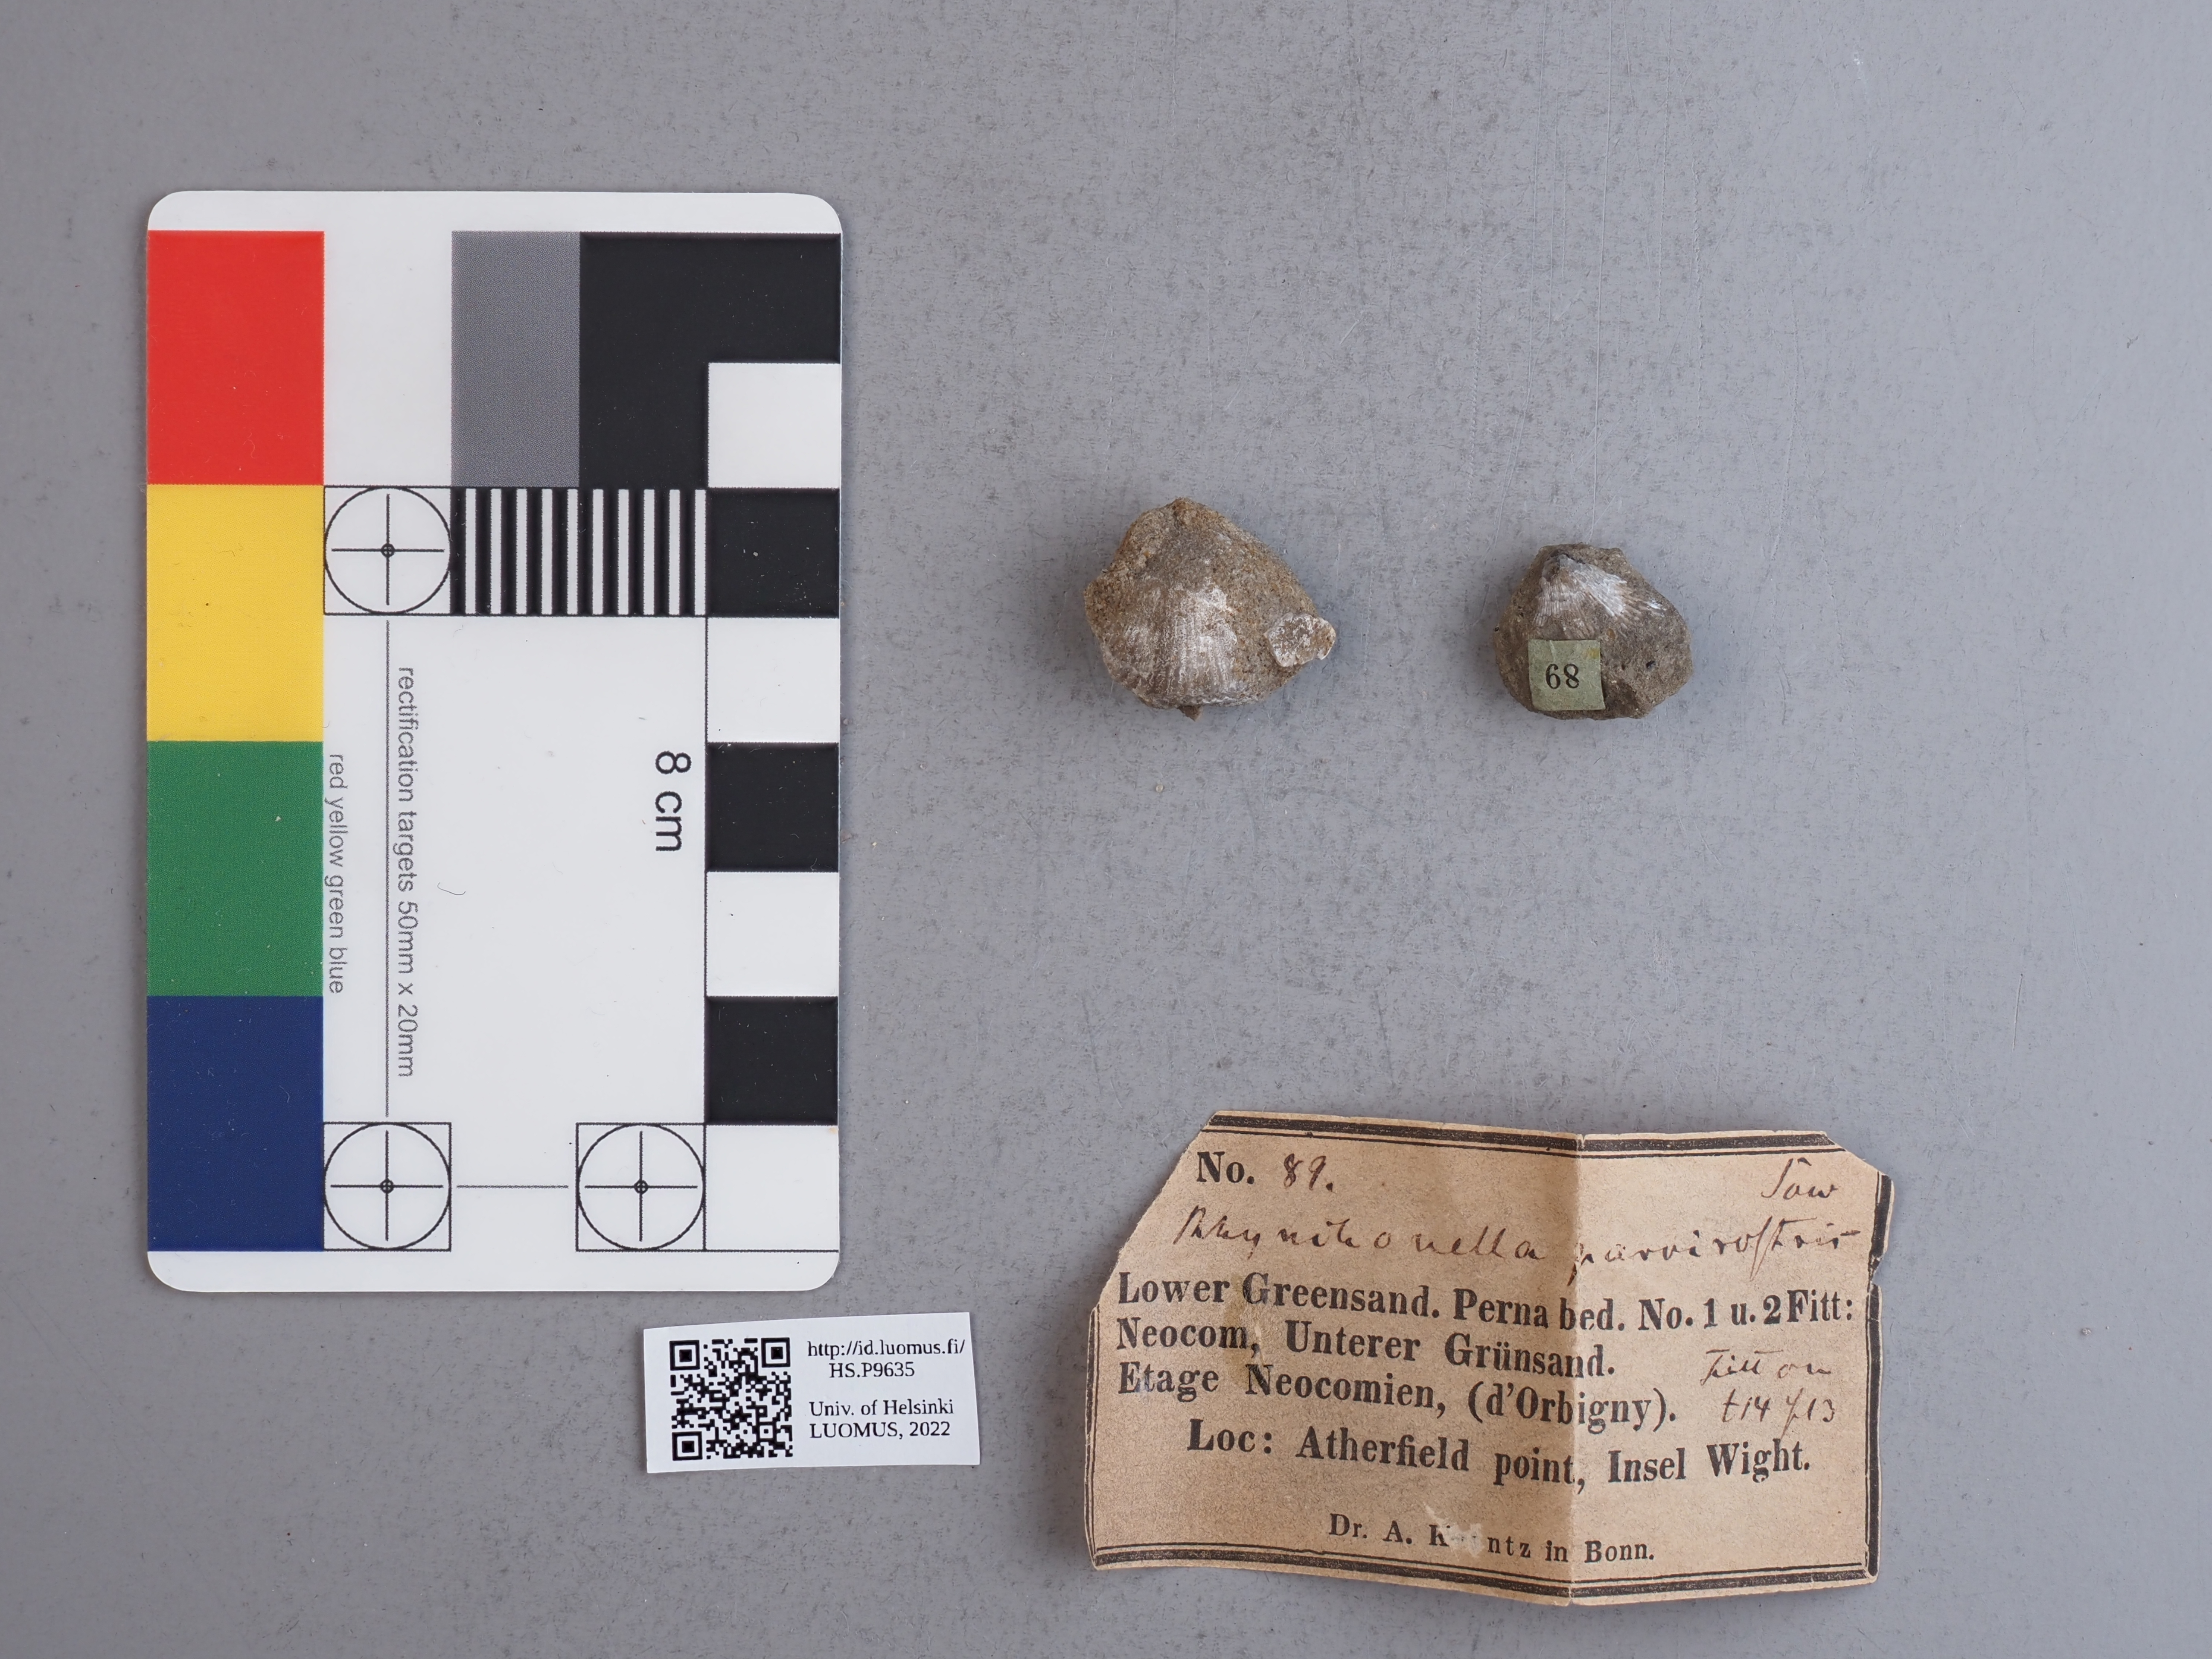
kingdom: Animalia
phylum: Brachiopoda
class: Rhynchonellata
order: Rhynchonellida
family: Rhynchonellidae
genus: Rhynchonella
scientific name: Rhynchonella
